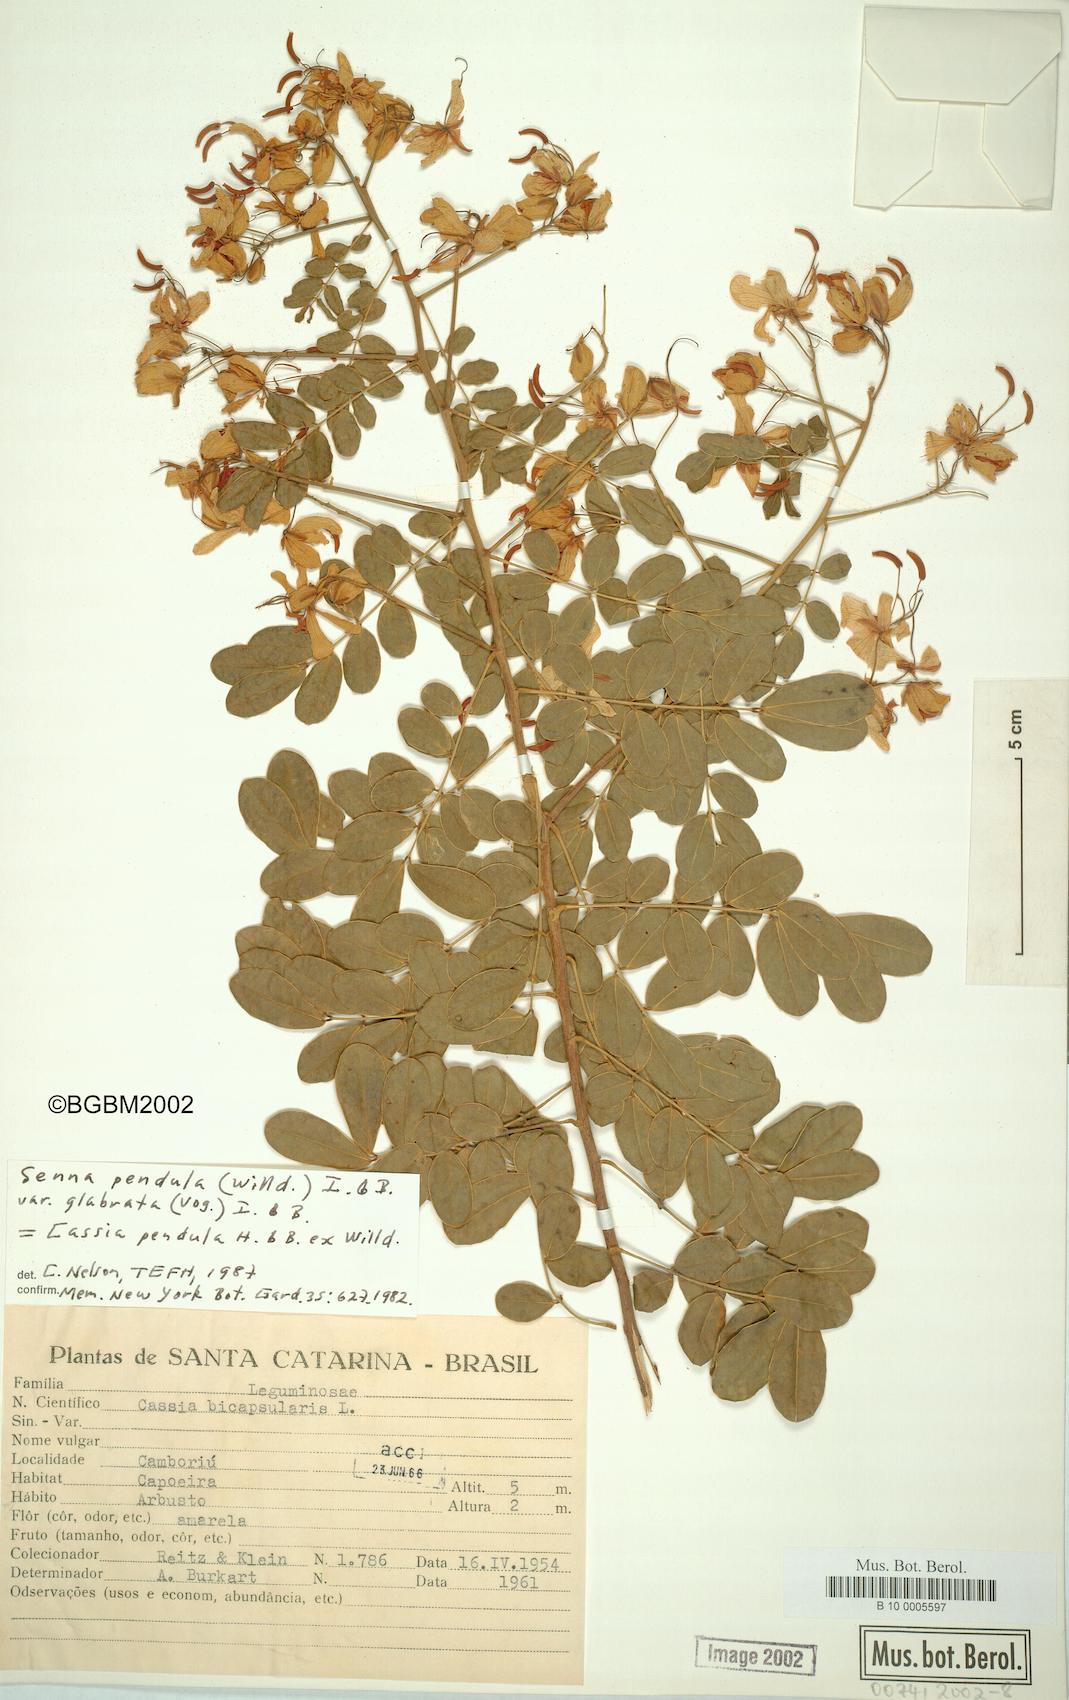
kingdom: Plantae
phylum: Tracheophyta
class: Magnoliopsida
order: Fabales
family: Fabaceae
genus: Senna
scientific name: Senna pendula
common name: Easter cassia
